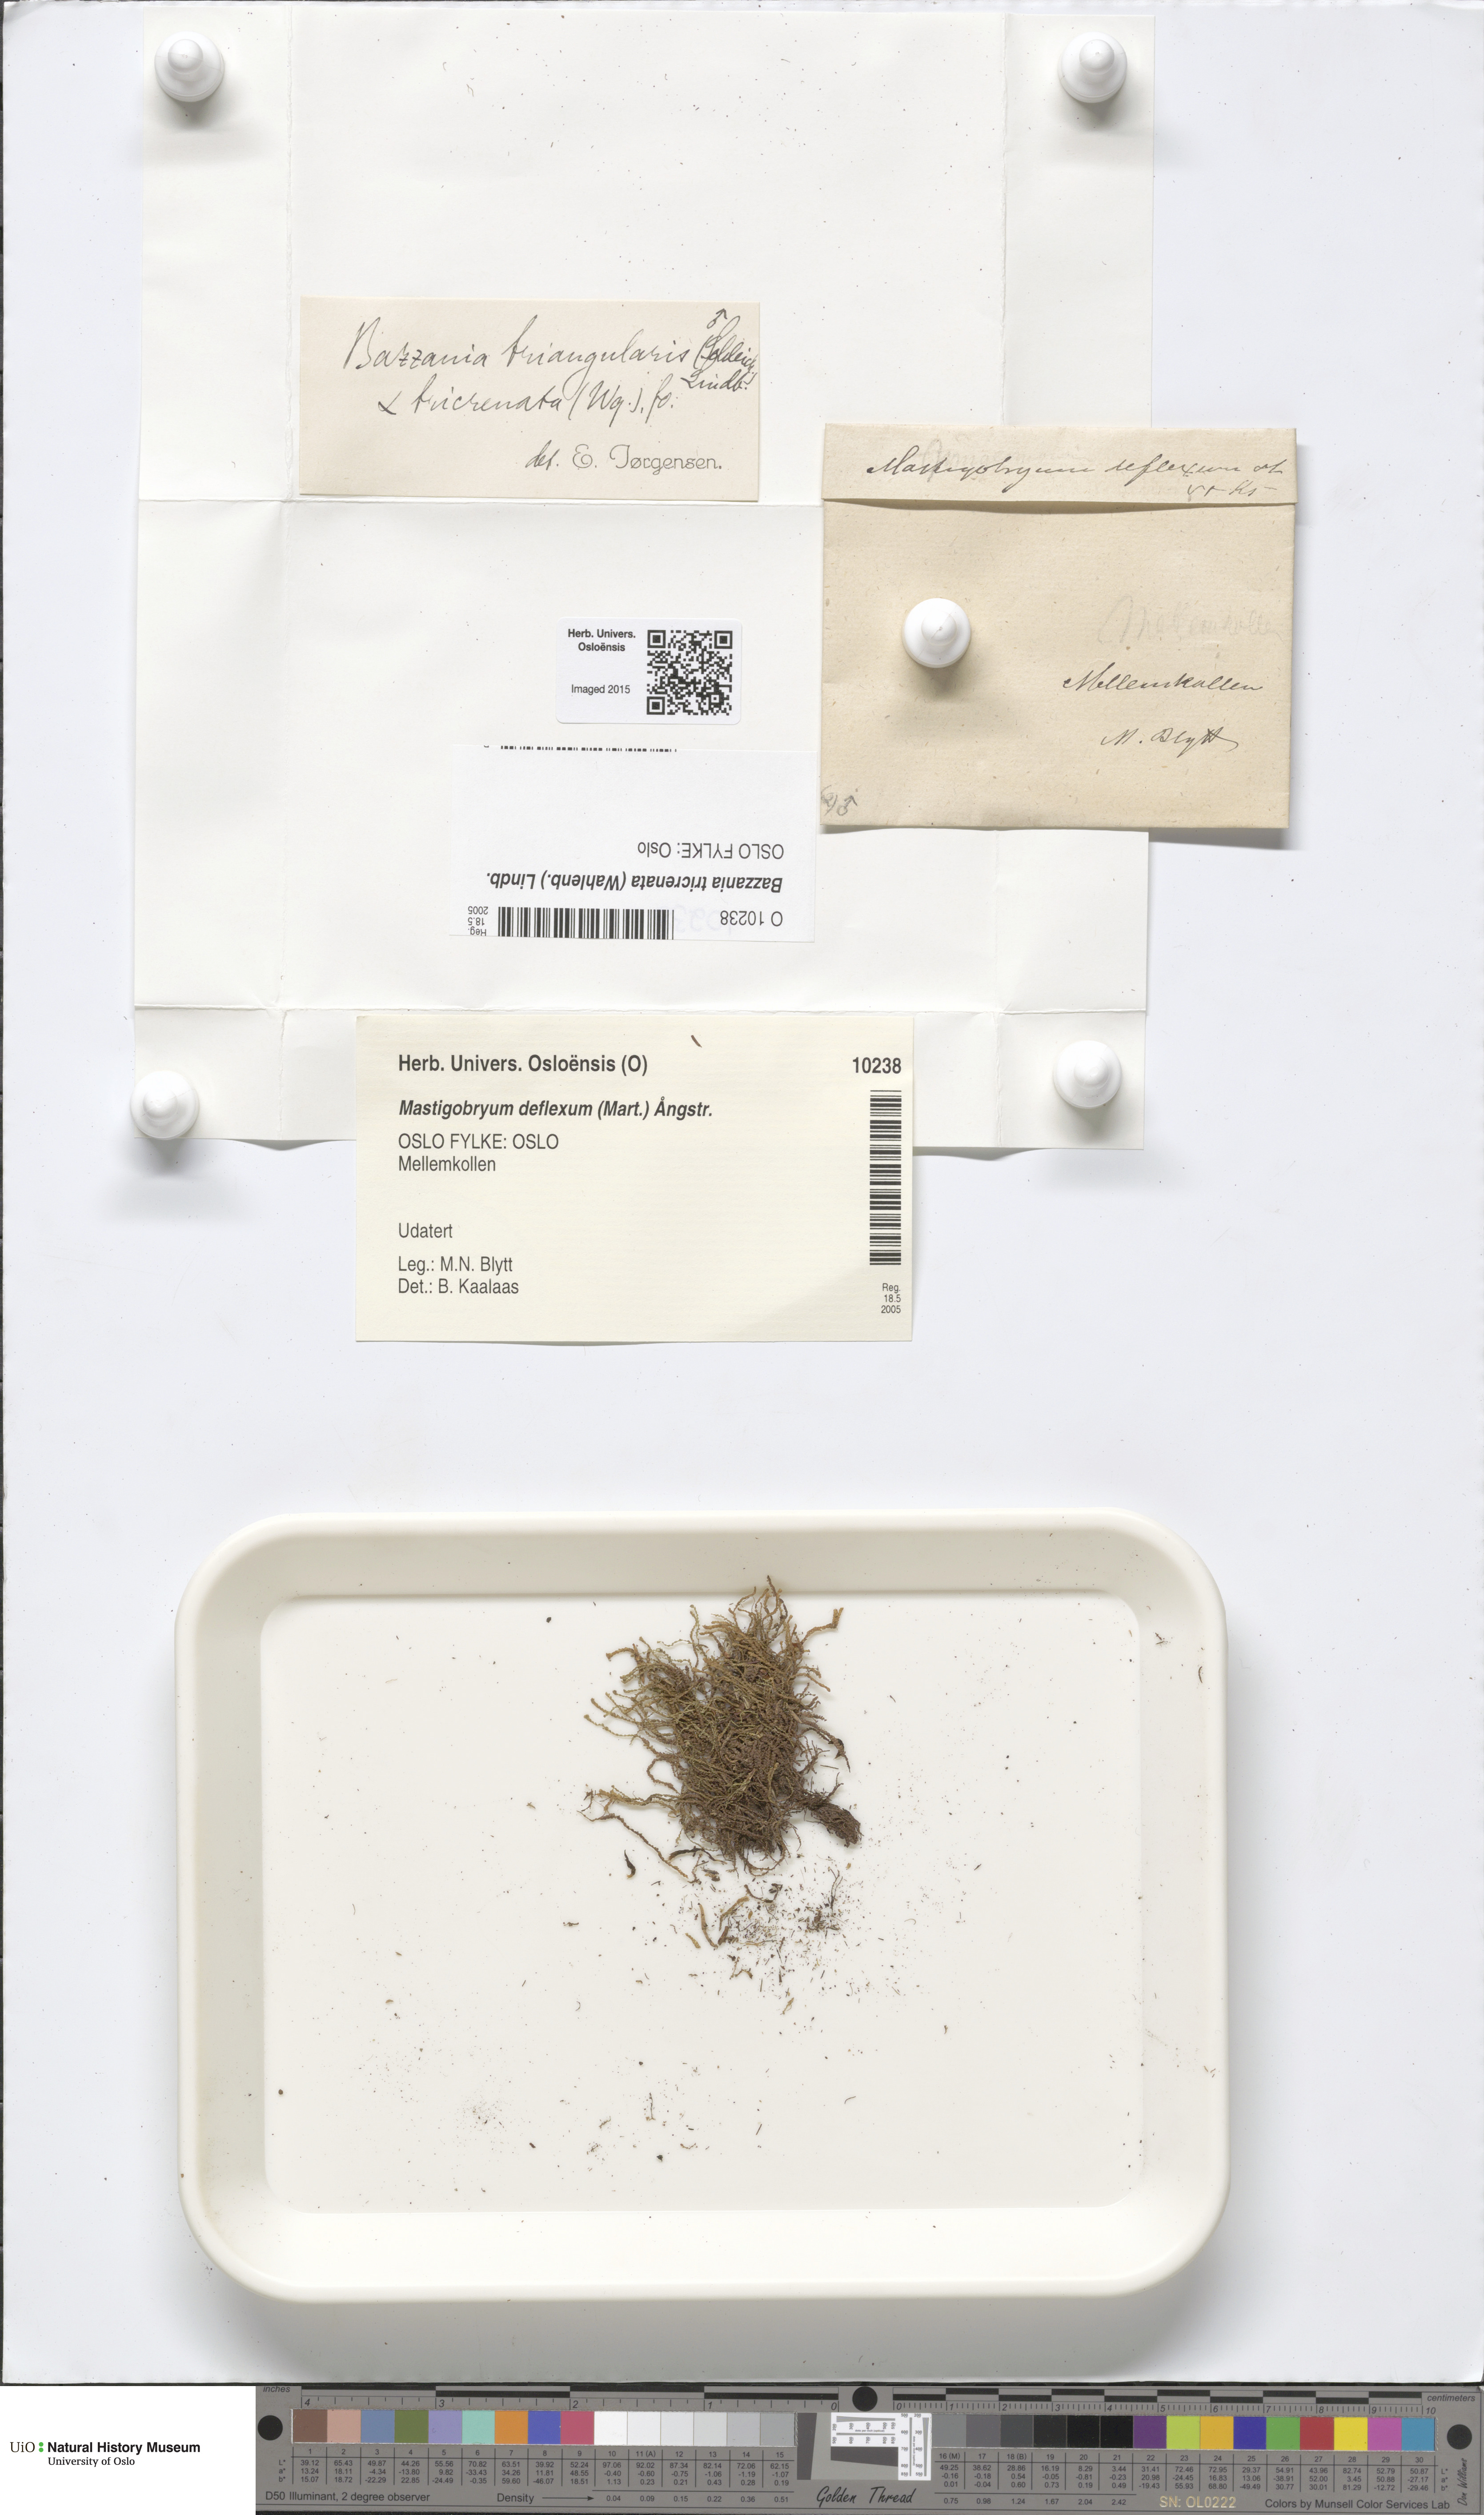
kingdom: Plantae
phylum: Marchantiophyta
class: Jungermanniopsida
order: Jungermanniales
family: Lepidoziaceae
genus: Bazzania
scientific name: Bazzania tricrenata
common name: Lesser whipwort
